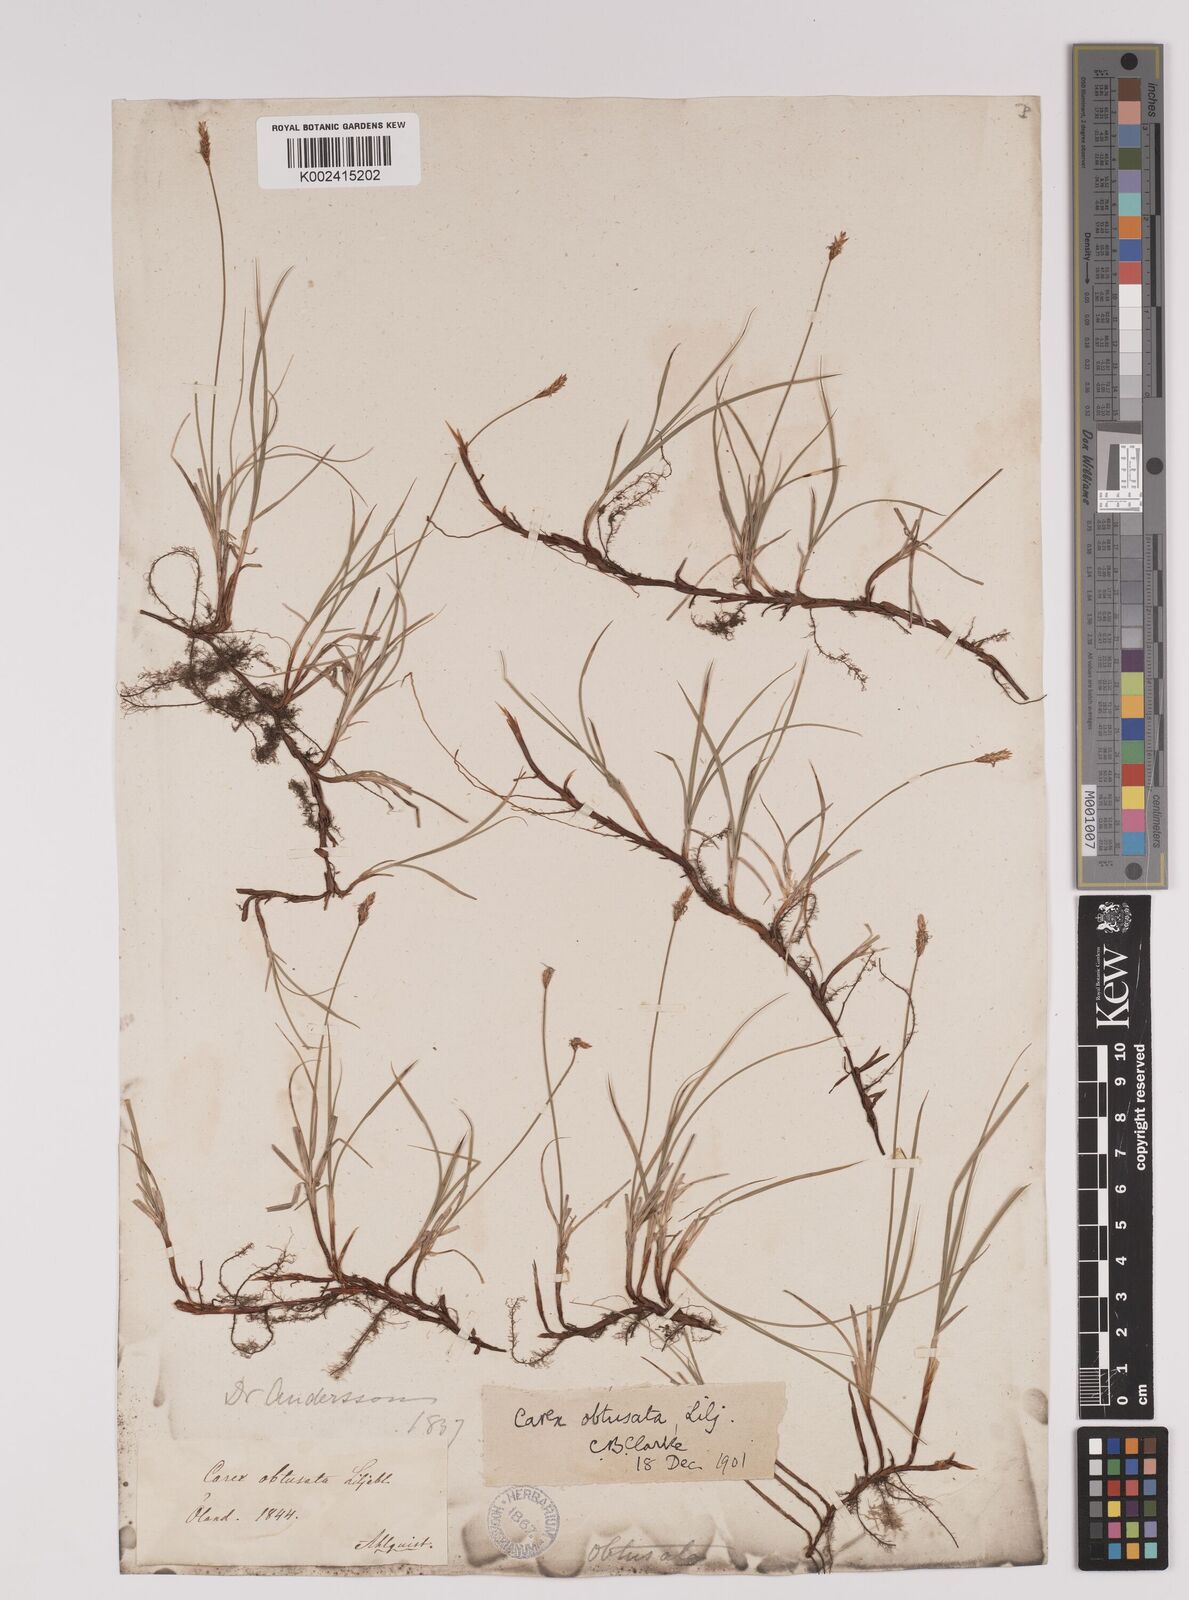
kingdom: Plantae
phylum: Tracheophyta
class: Liliopsida
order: Poales
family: Cyperaceae
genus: Carex
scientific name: Carex obtusata
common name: Blunt sedge
